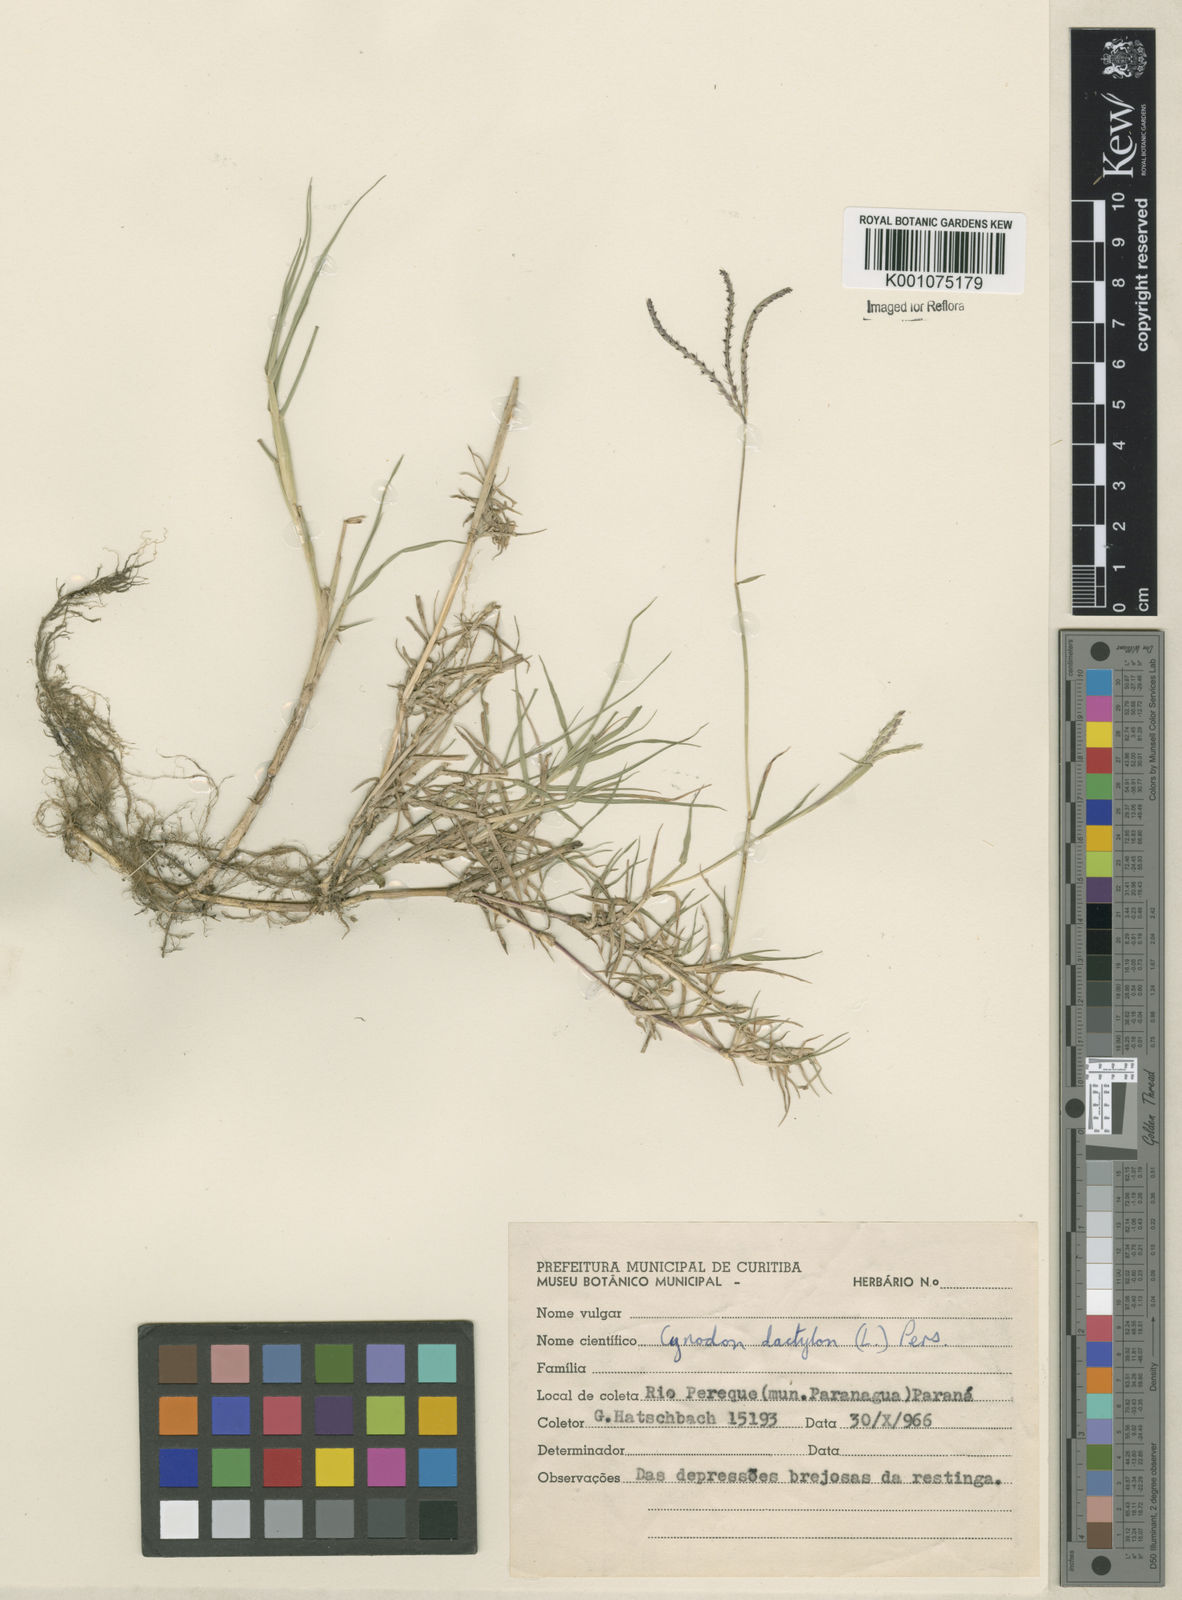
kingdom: Plantae
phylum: Tracheophyta
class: Liliopsida
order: Poales
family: Poaceae
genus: Cynodon
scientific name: Cynodon dactylon
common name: Bermuda grass
